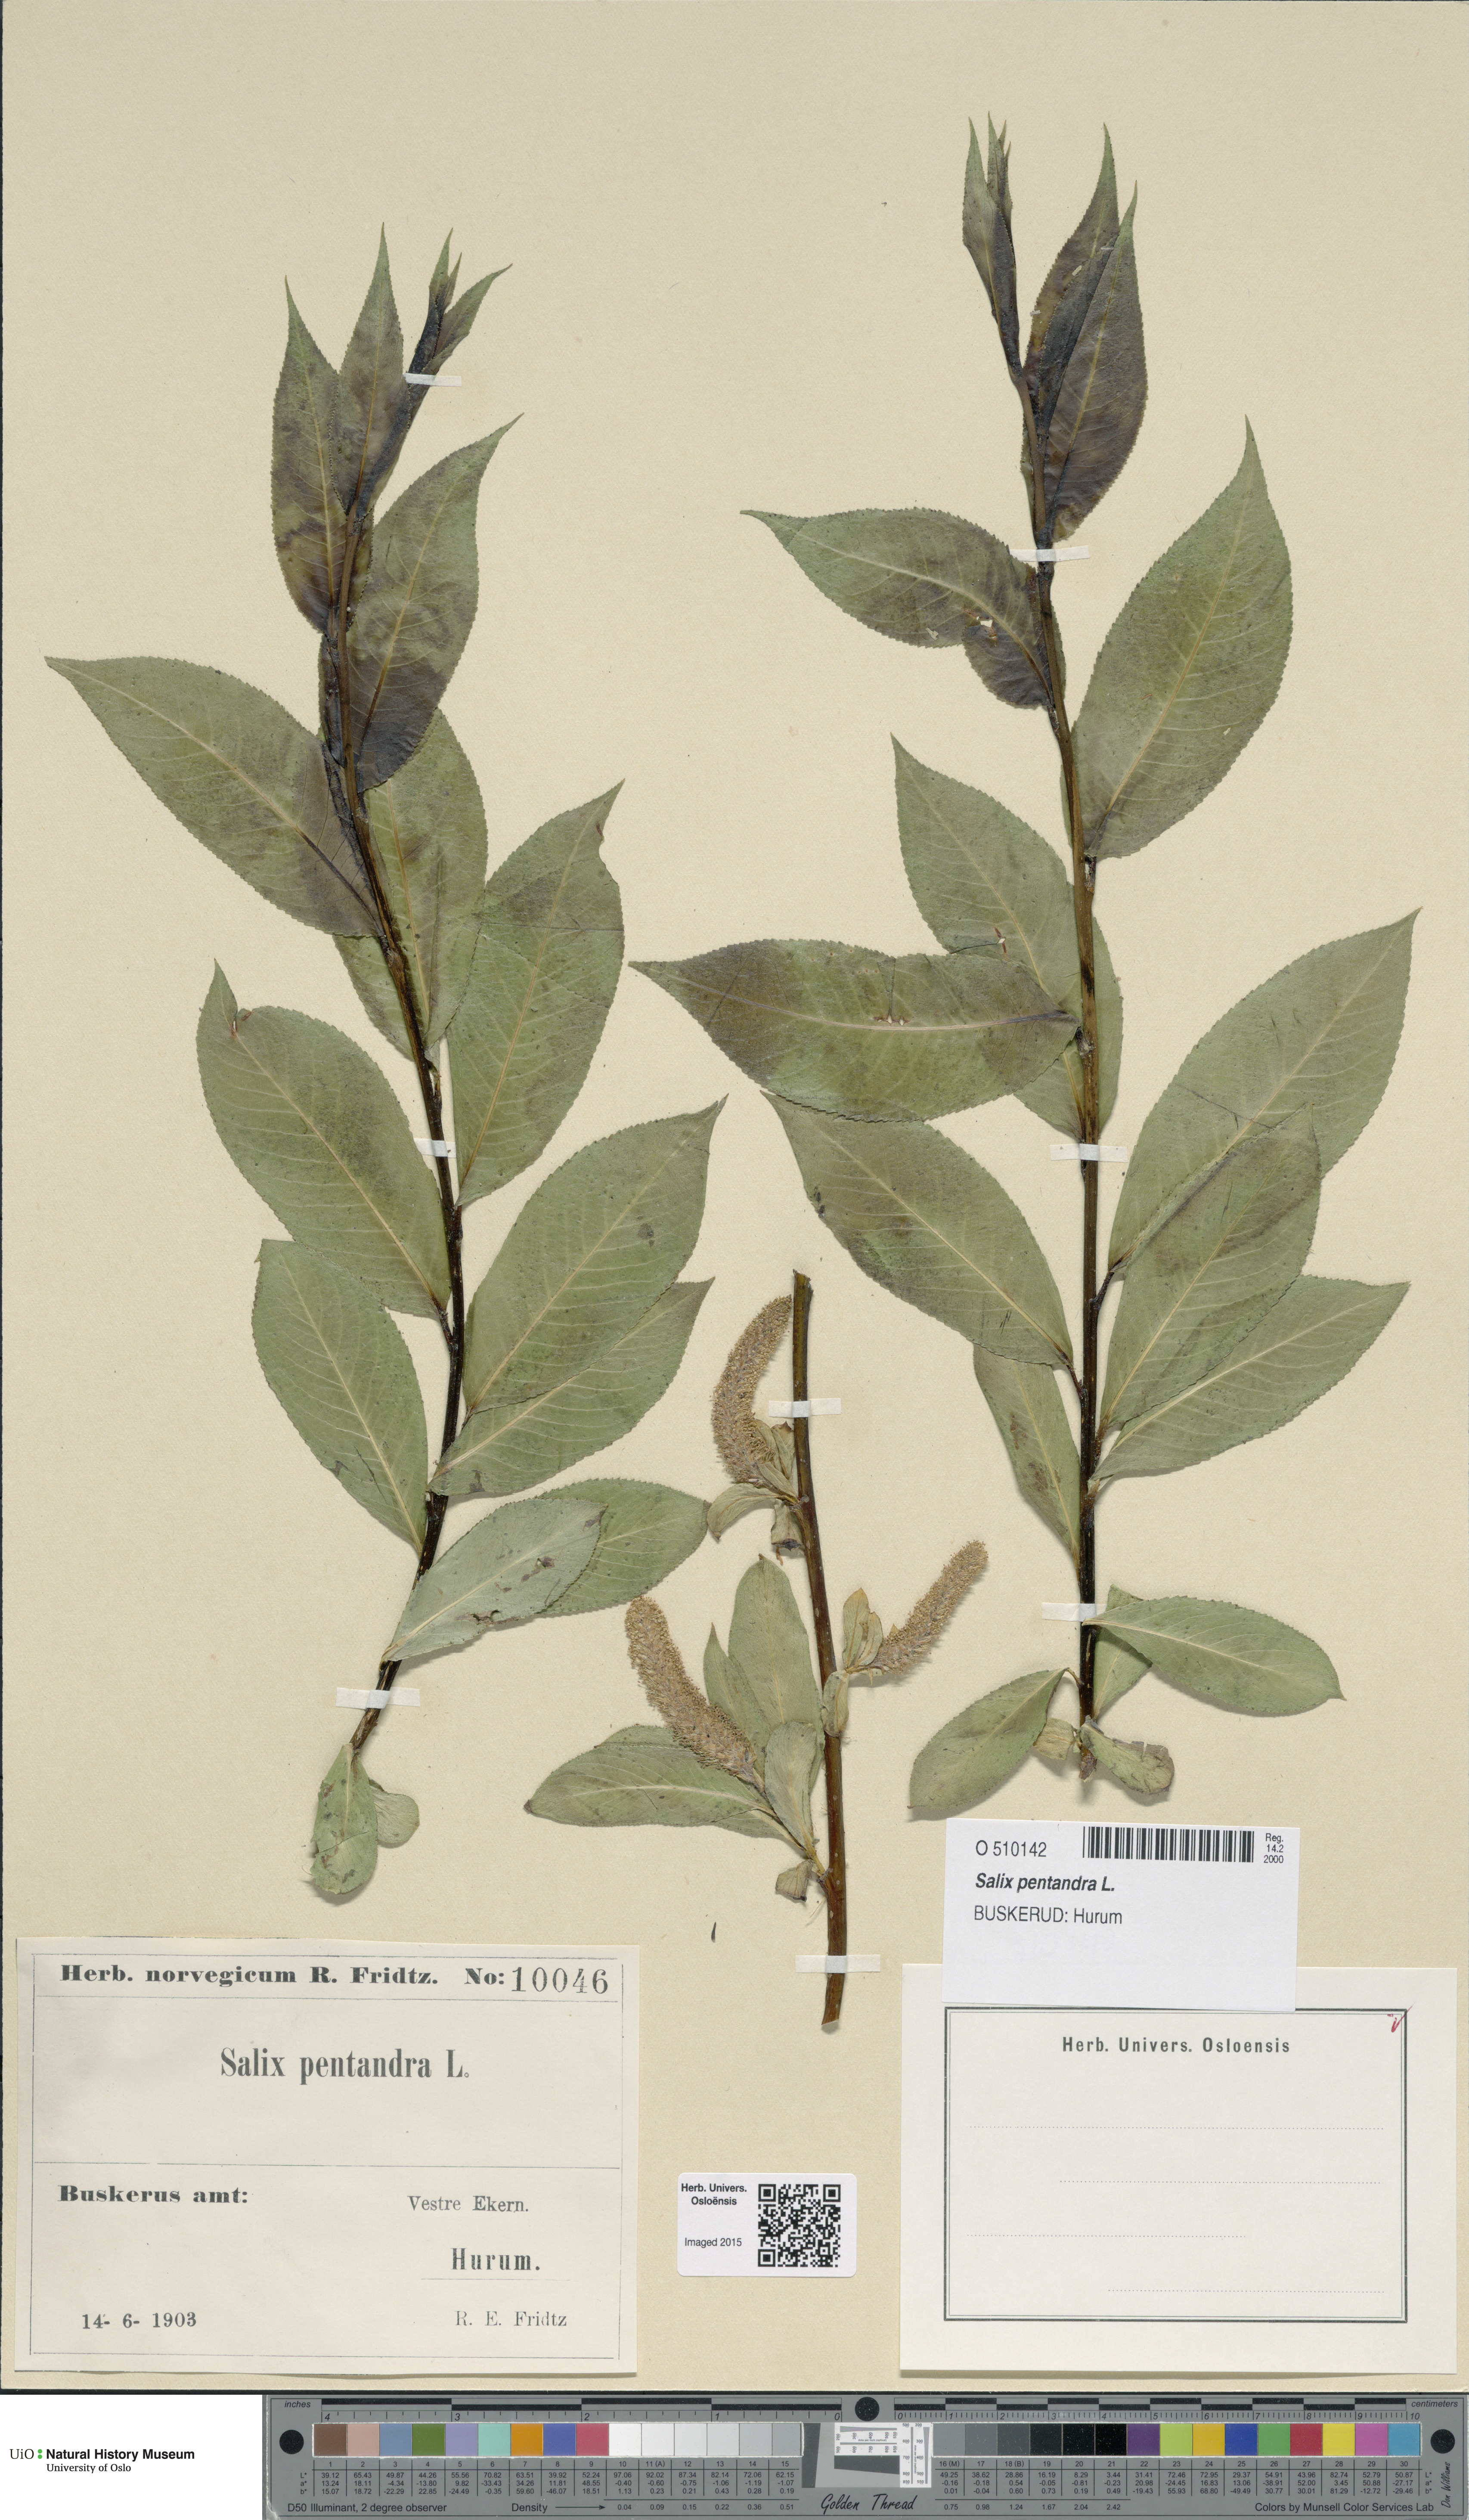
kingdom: Plantae
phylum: Tracheophyta
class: Magnoliopsida
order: Malpighiales
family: Salicaceae
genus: Salix
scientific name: Salix pentandra
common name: Bay willow
